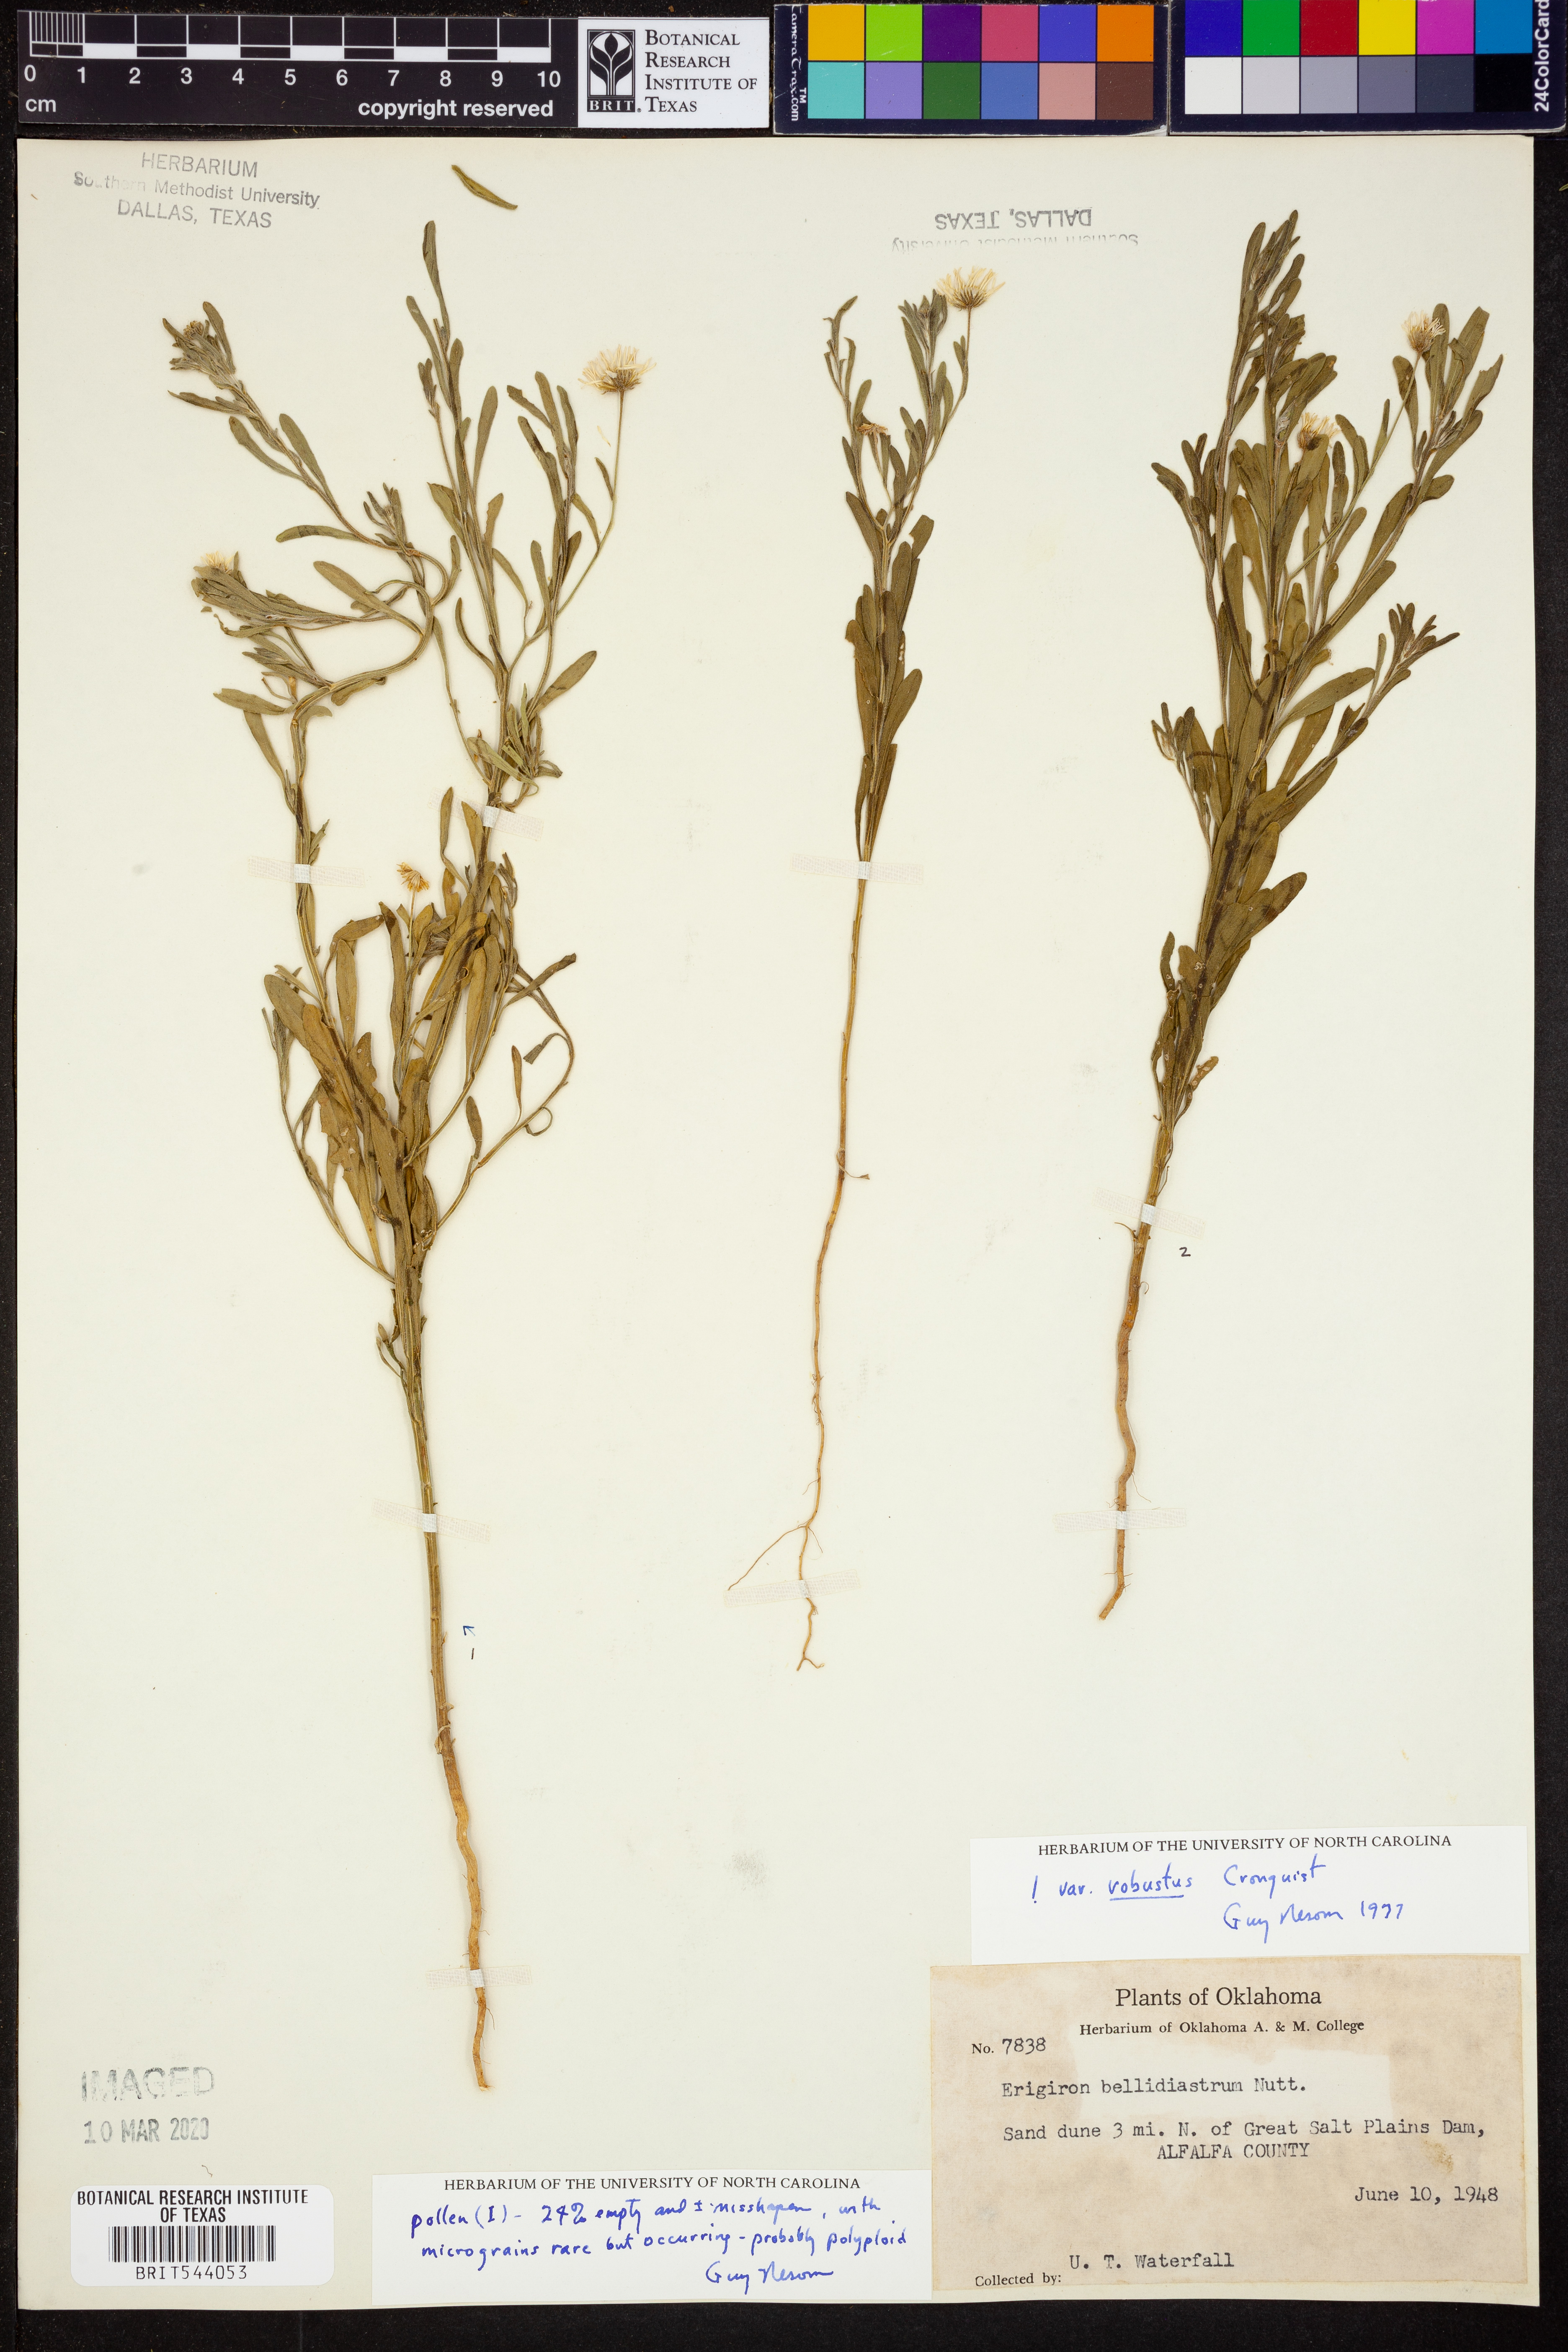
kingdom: Plantae
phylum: Tracheophyta
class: Magnoliopsida
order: Asterales
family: Asteraceae
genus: Erigeron
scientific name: Erigeron bellidiastrum
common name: Sand fleabane
